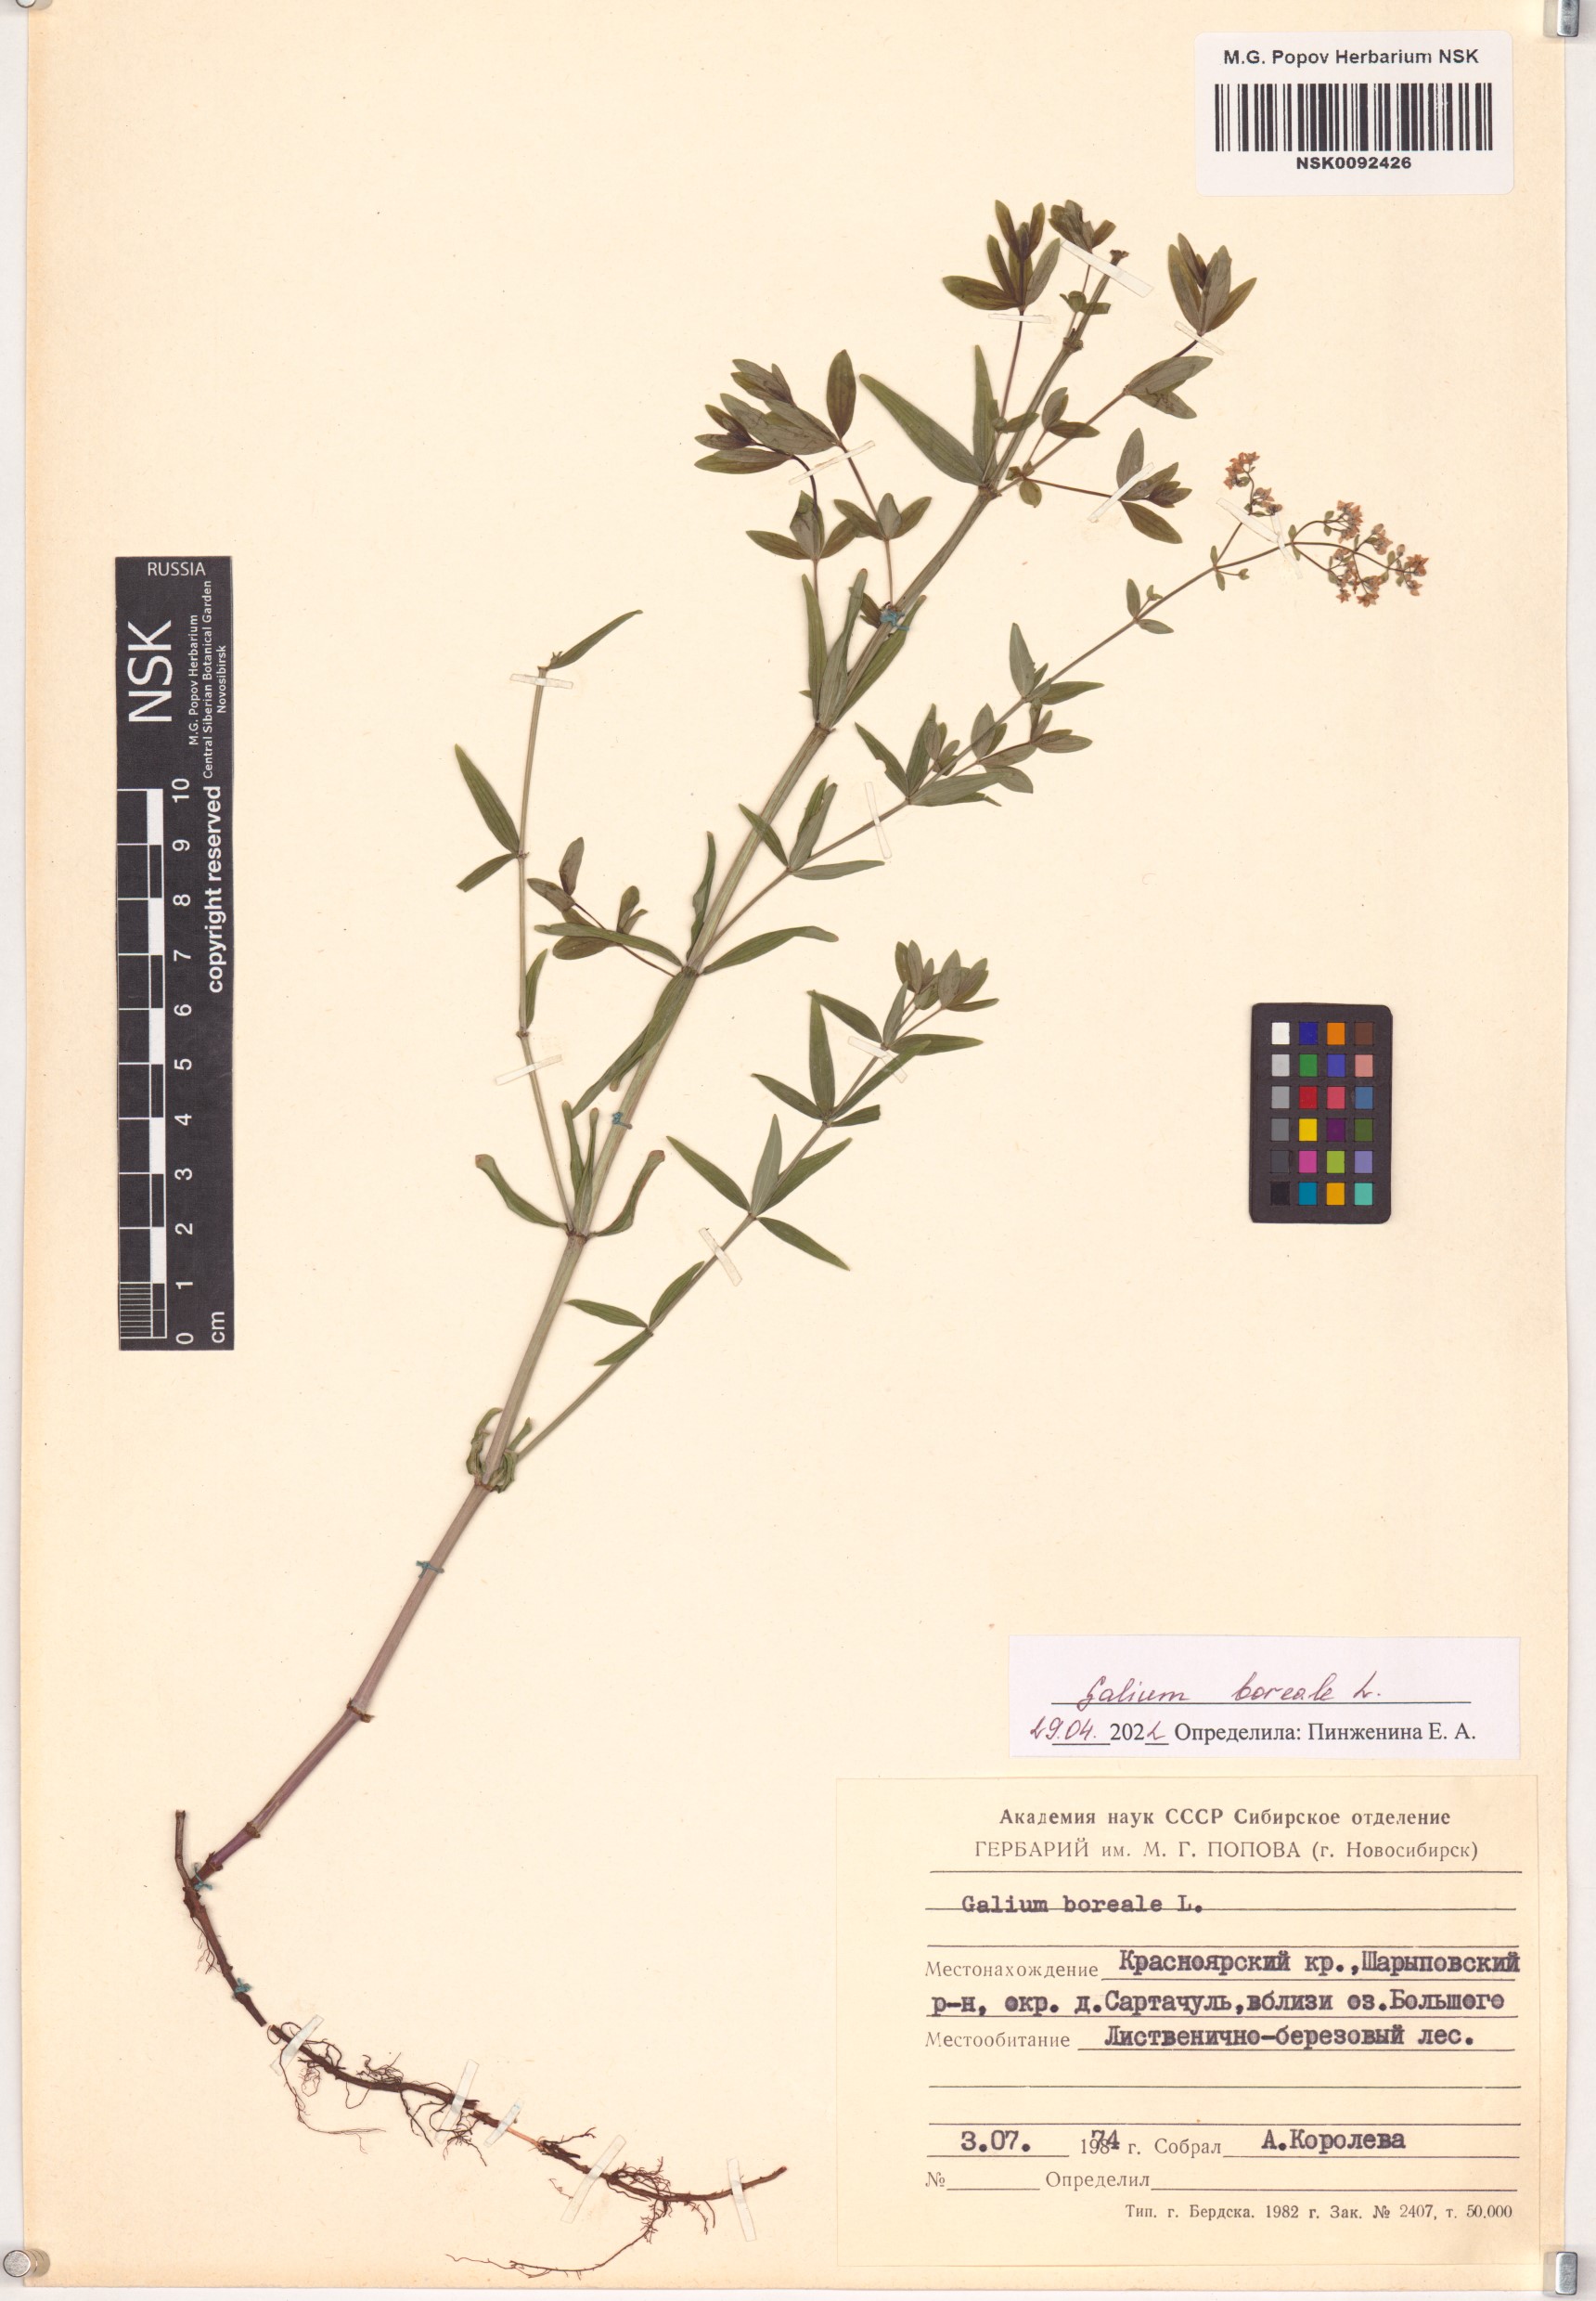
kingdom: Plantae
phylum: Tracheophyta
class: Magnoliopsida
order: Gentianales
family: Rubiaceae
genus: Galium
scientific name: Galium boreale
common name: Northern bedstraw
